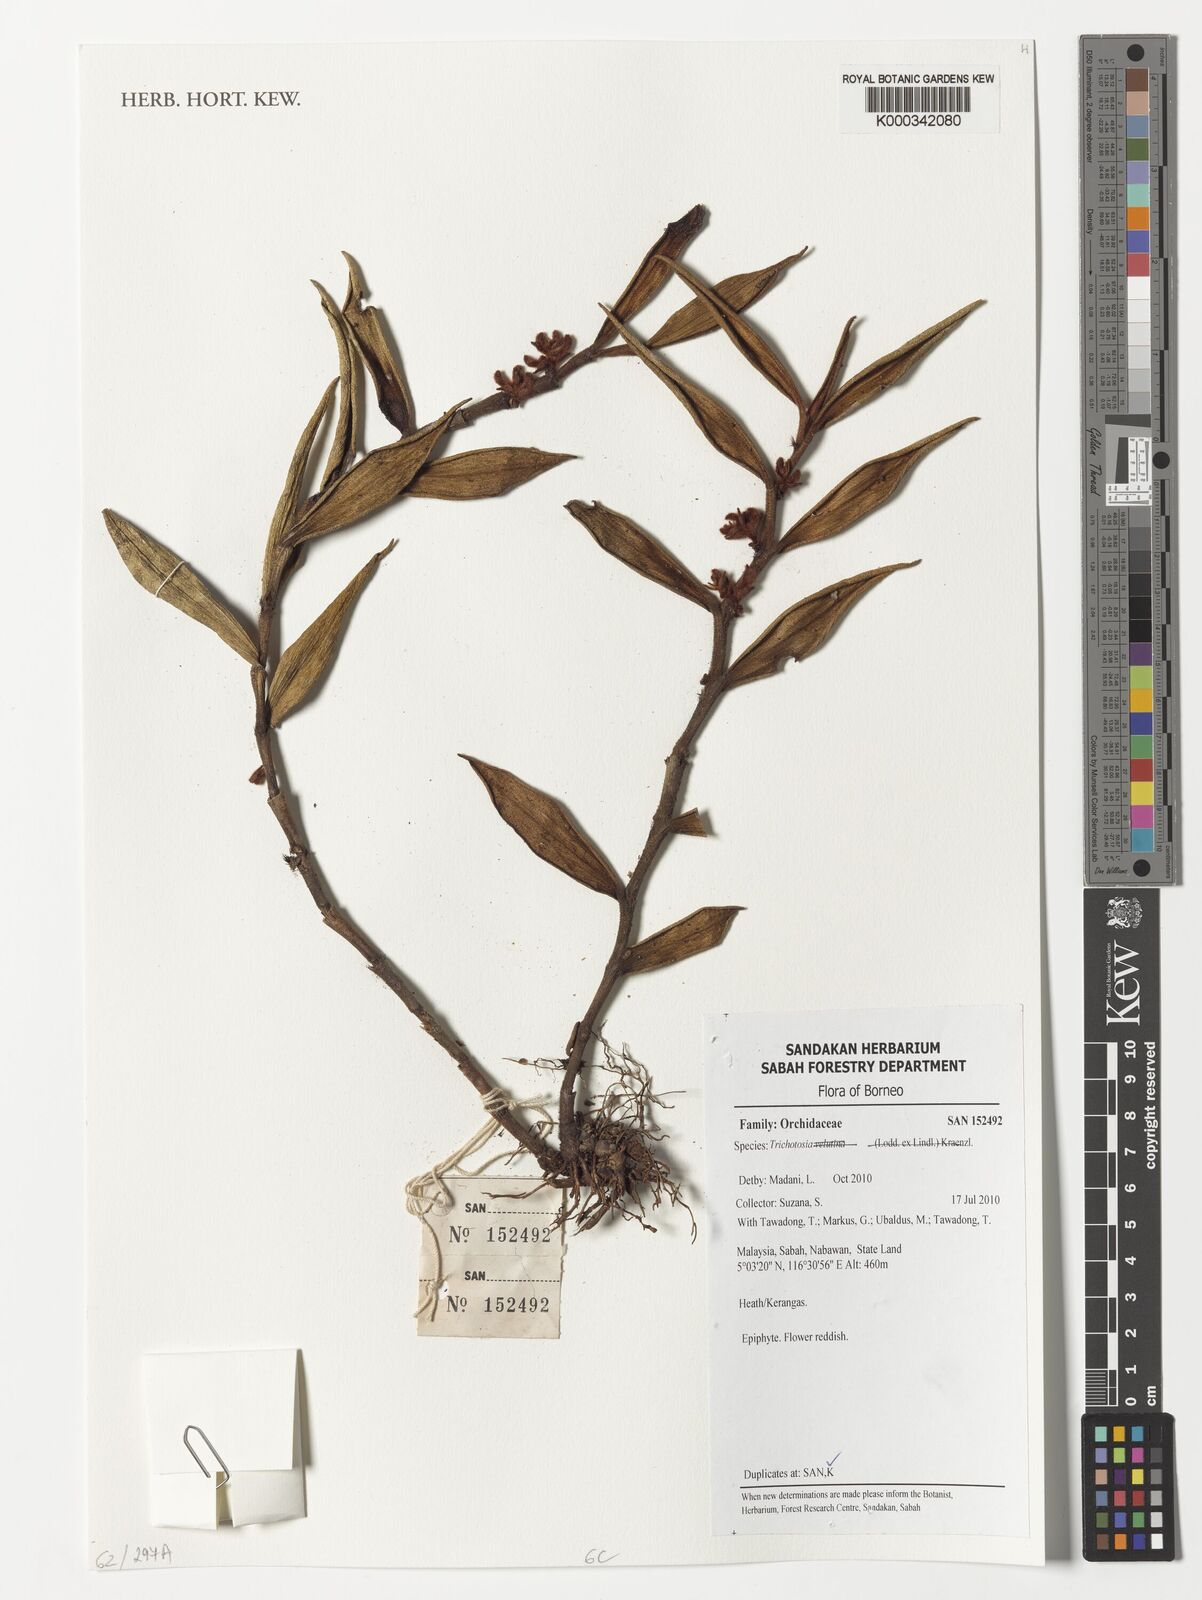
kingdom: Plantae
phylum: Tracheophyta
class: Liliopsida
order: Asparagales
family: Orchidaceae
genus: Trichotosia
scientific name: Trichotosia
